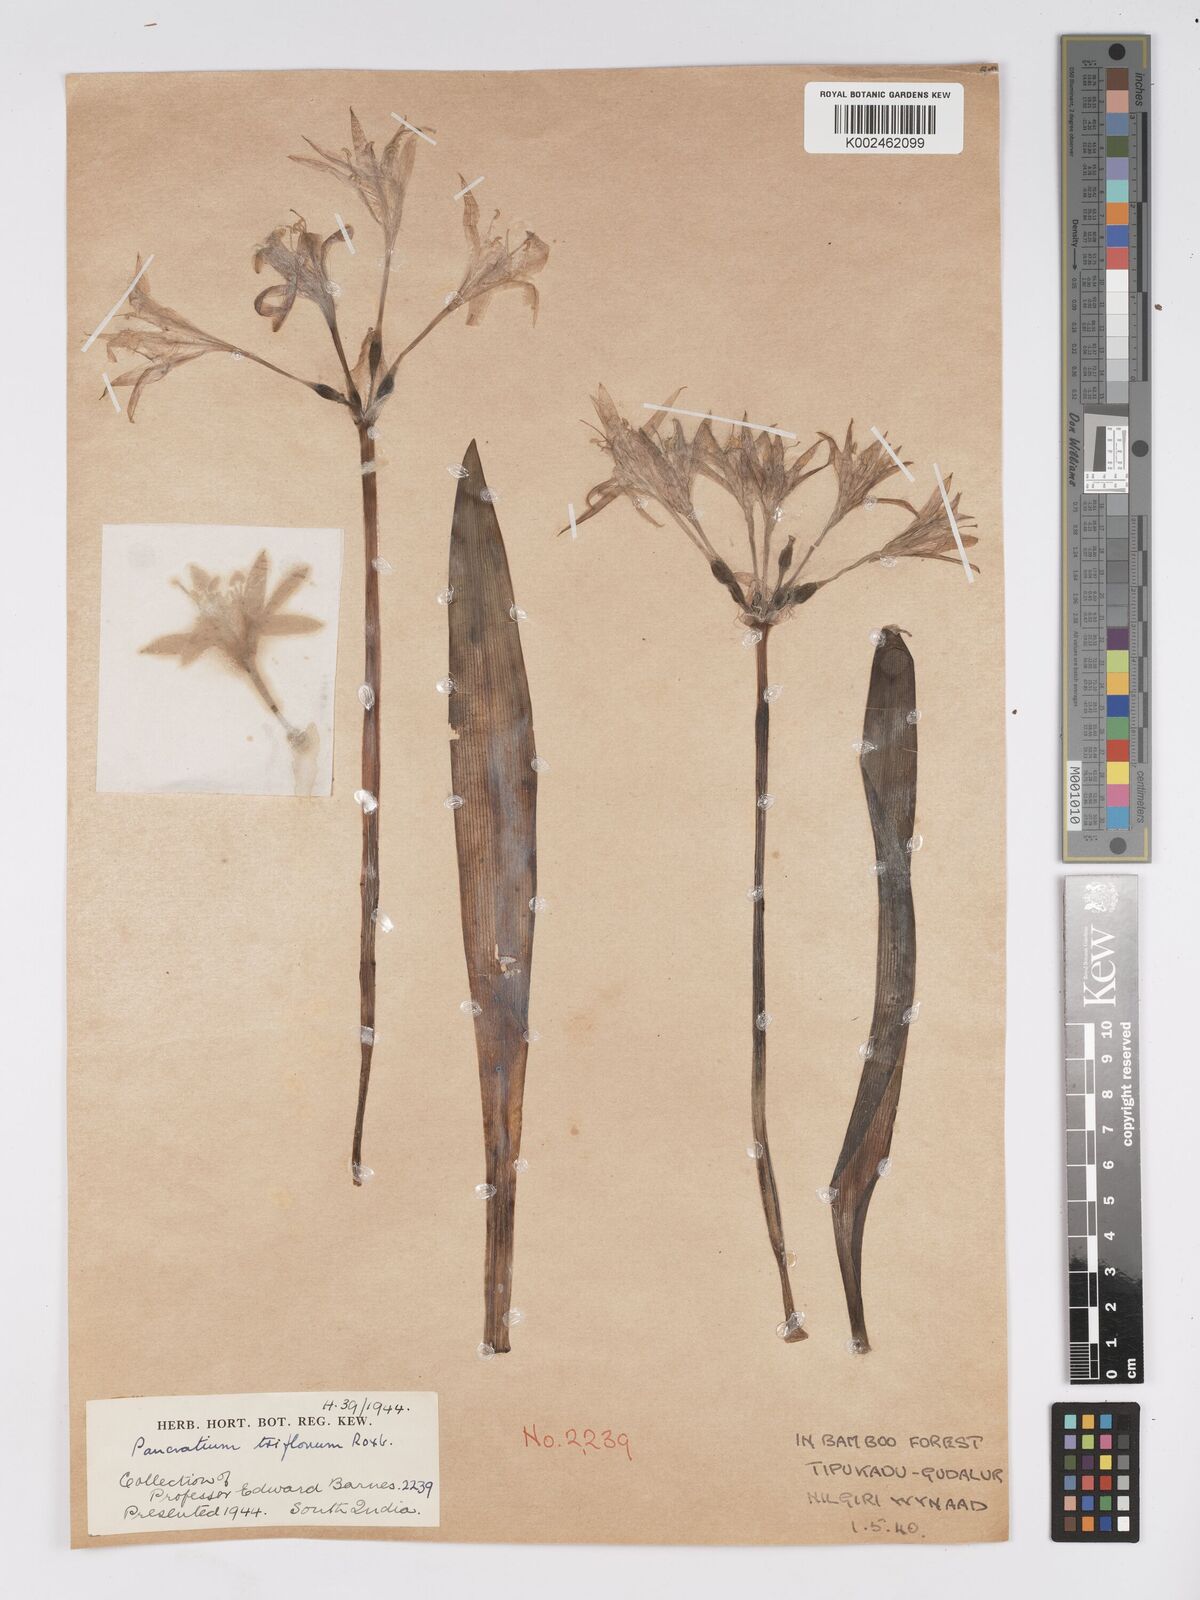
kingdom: Plantae
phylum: Tracheophyta
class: Liliopsida
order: Asparagales
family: Amaryllidaceae
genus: Pancratium
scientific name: Pancratium triflorum
